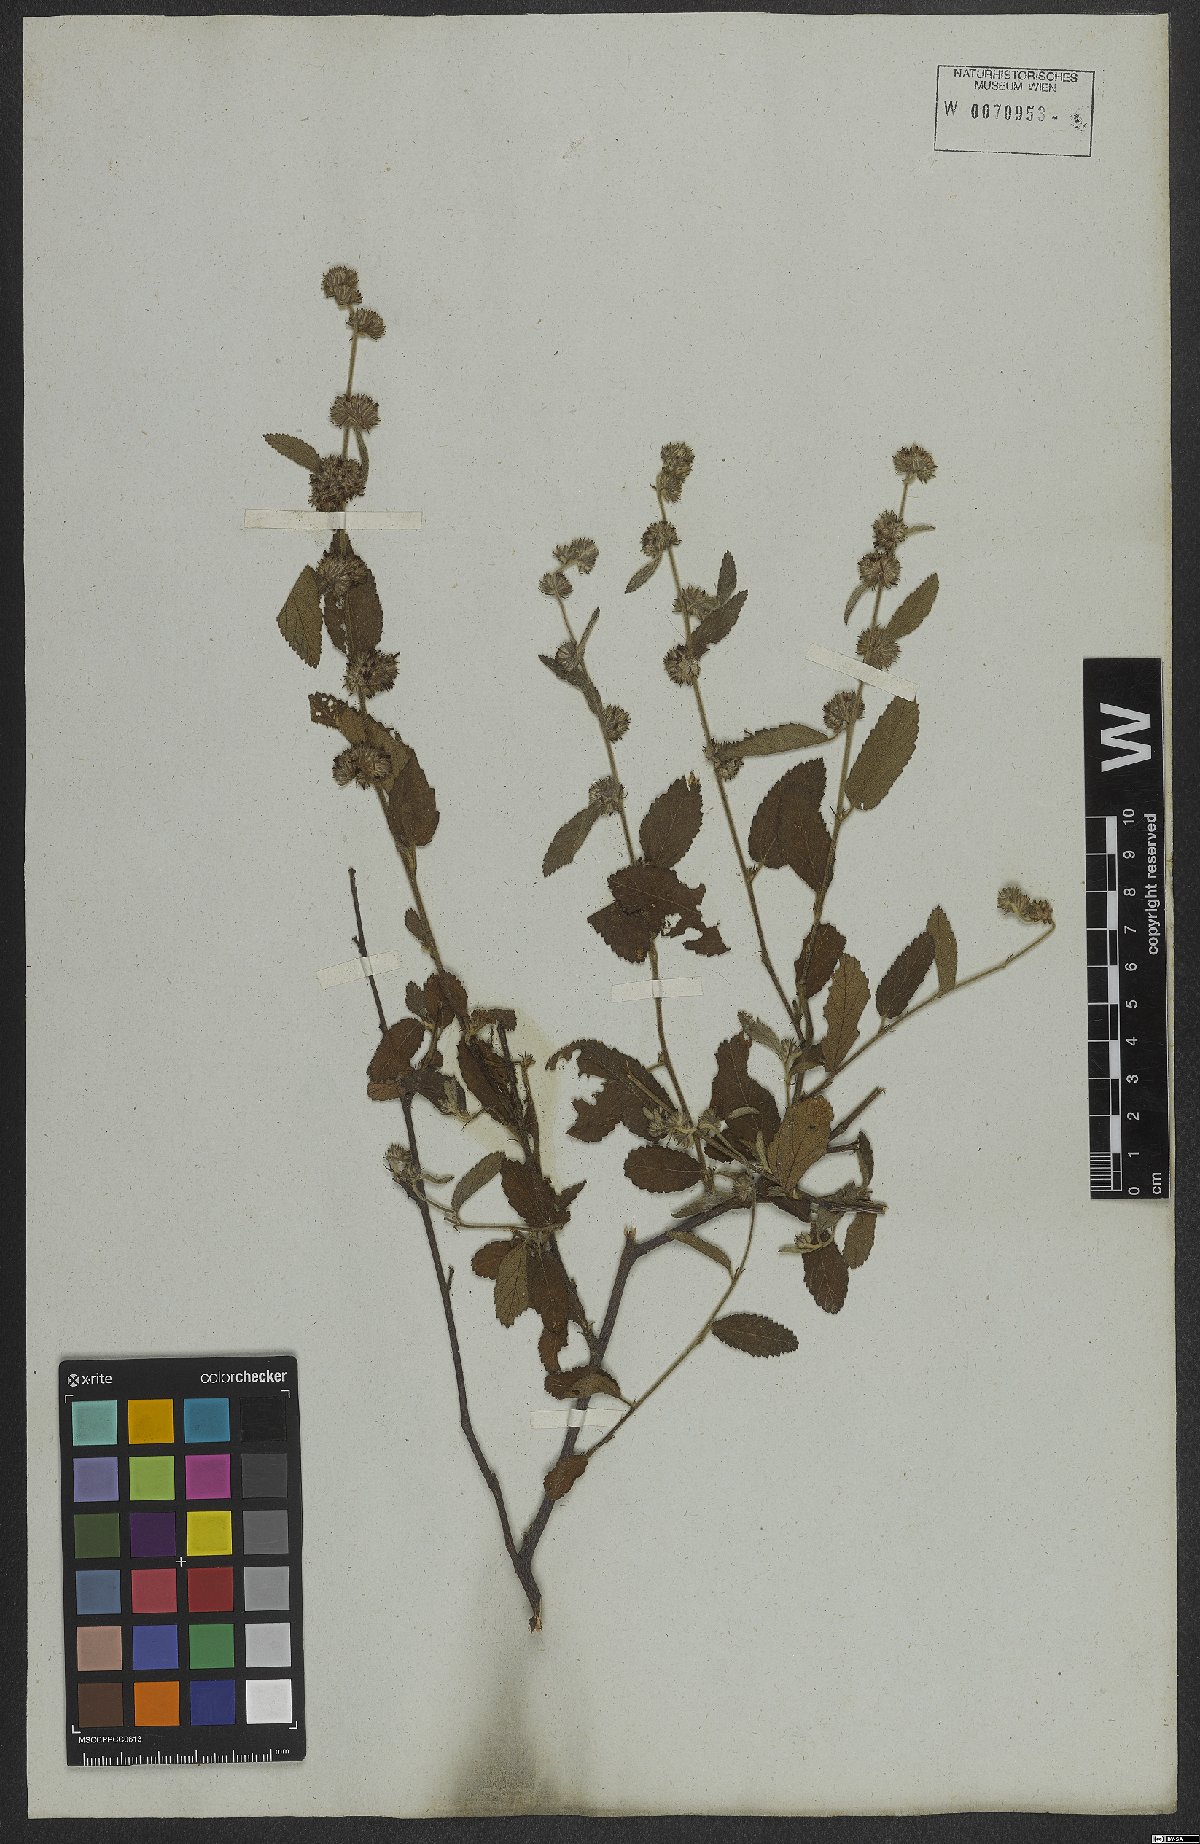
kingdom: Plantae
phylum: Tracheophyta
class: Magnoliopsida
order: Malvales
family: Malvaceae
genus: Waltheria
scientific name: Waltheria indica
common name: Leather-coat
